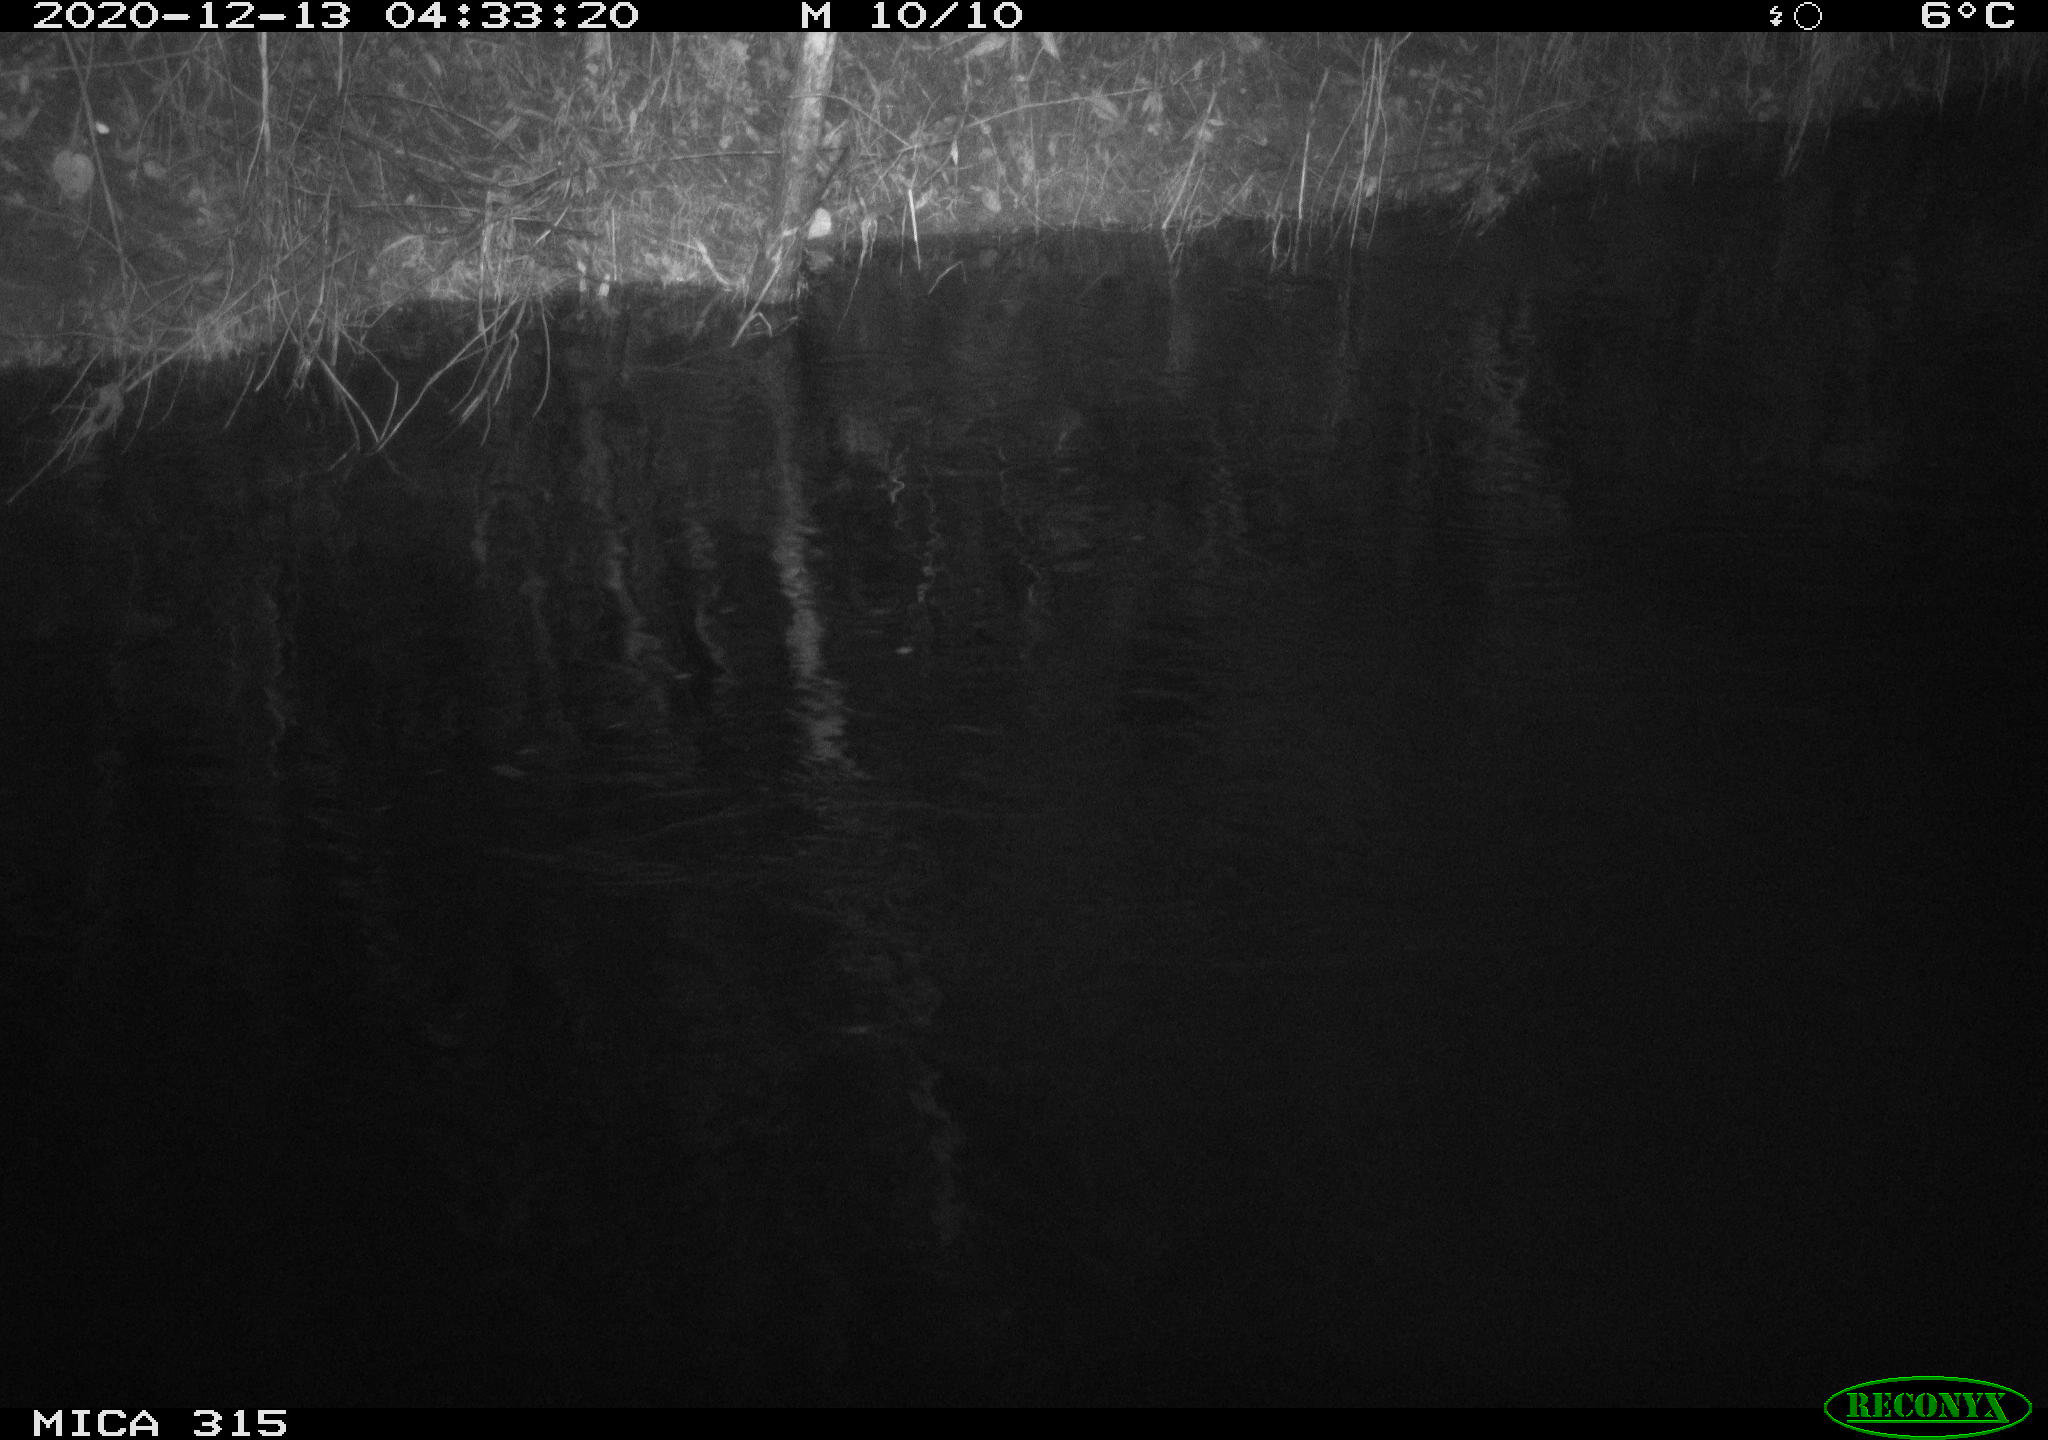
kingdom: Animalia
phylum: Chordata
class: Mammalia
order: Rodentia
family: Cricetidae
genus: Ondatra
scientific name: Ondatra zibethicus
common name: Muskrat
